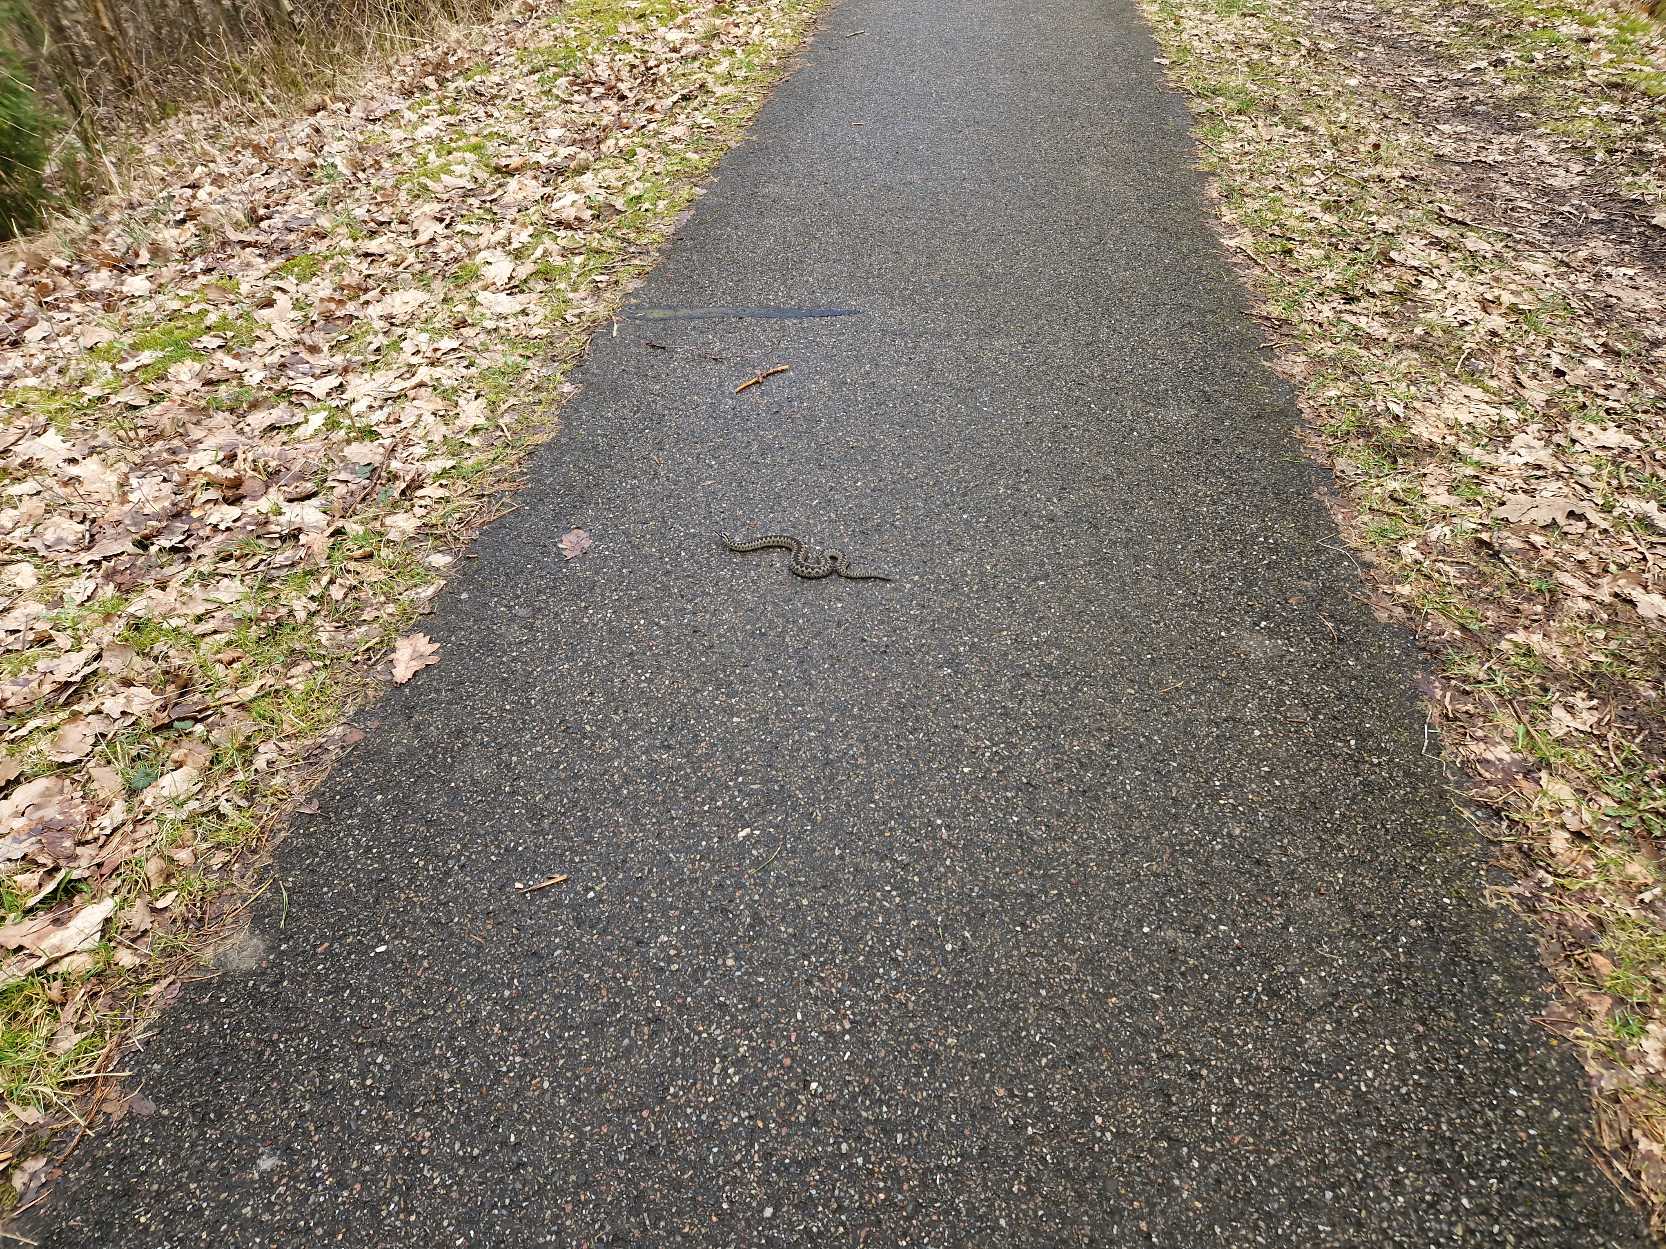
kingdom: Animalia
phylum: Chordata
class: Squamata
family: Viperidae
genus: Vipera
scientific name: Vipera berus
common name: Hugorm
